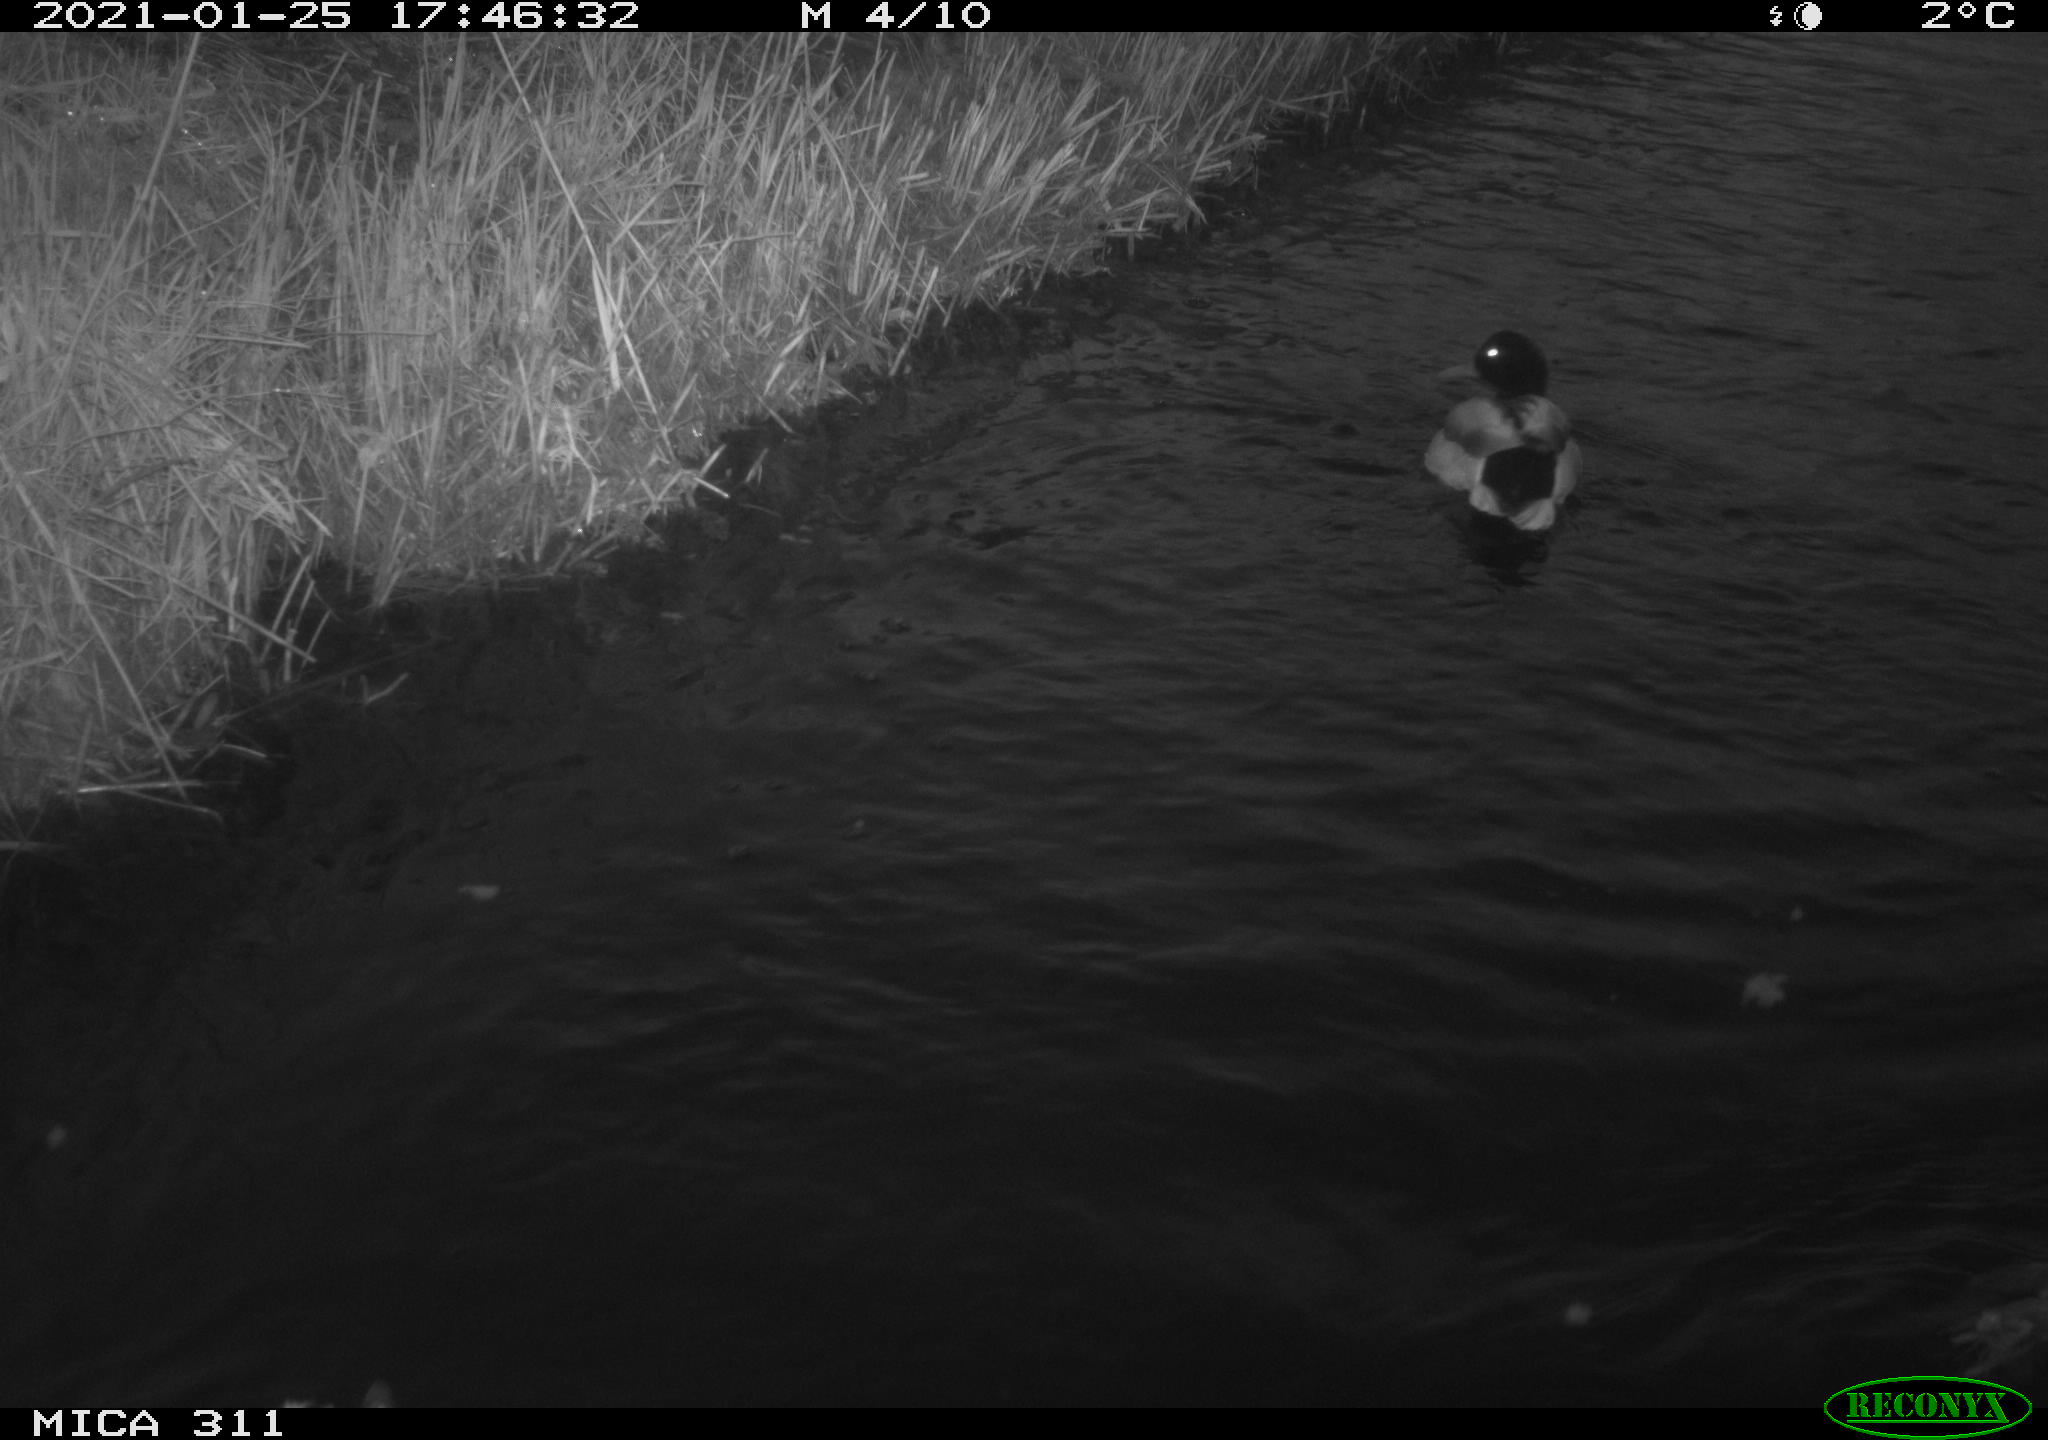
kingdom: Animalia
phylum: Chordata
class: Aves
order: Anseriformes
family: Anatidae
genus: Anas
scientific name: Anas
